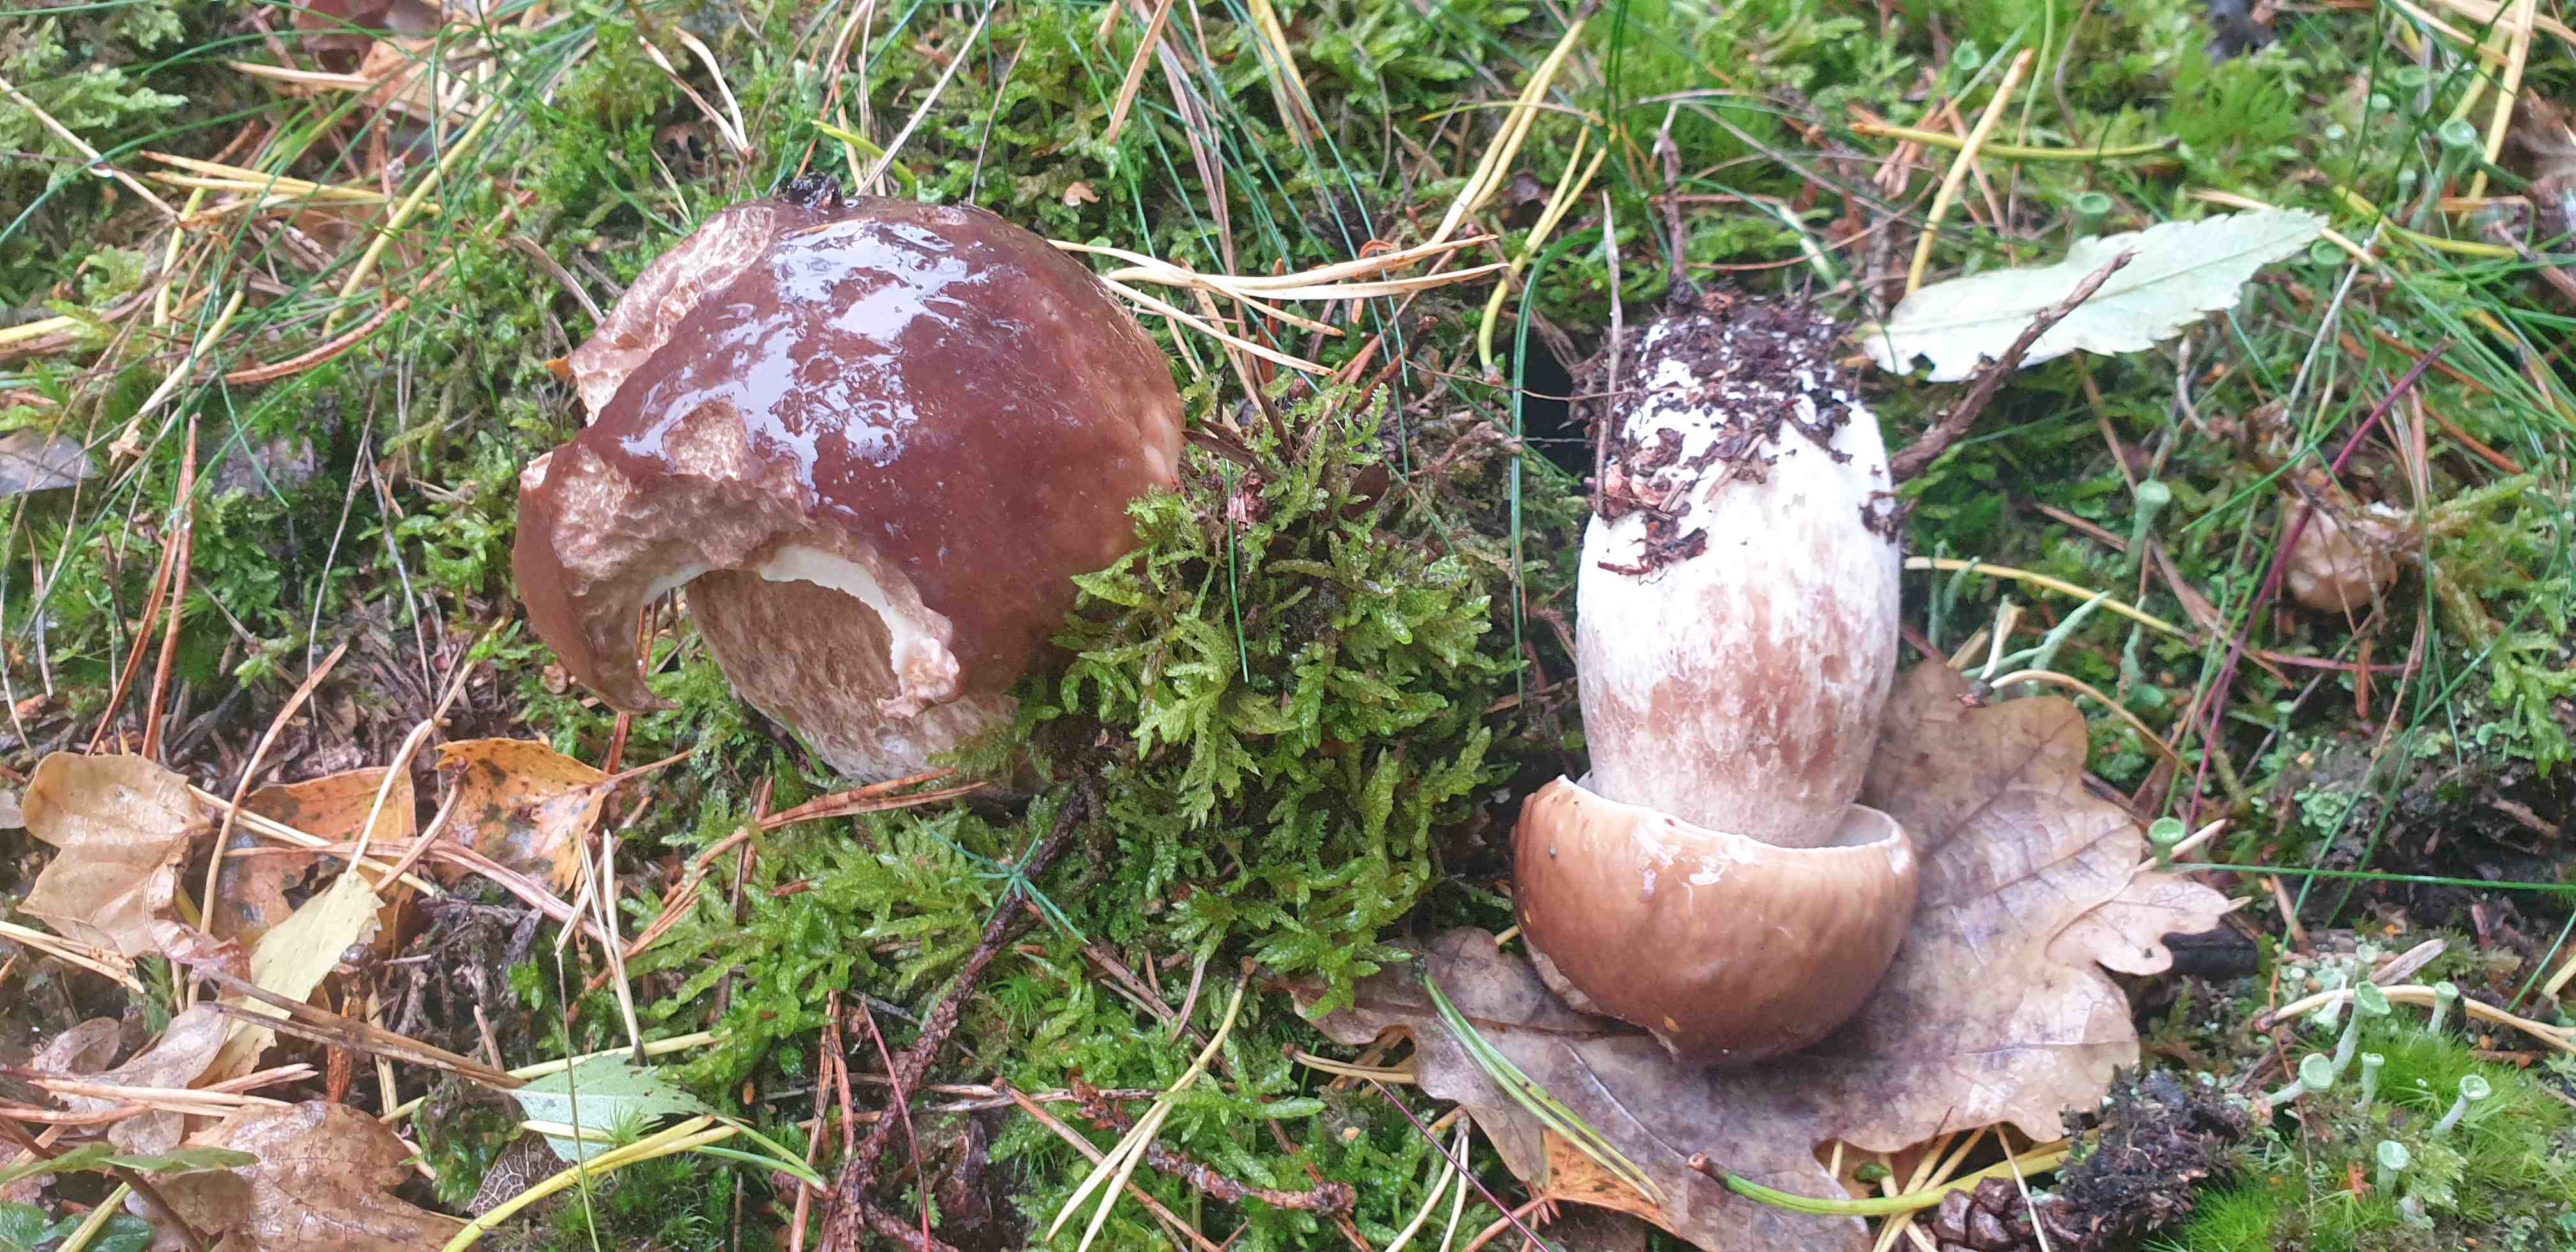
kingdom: Fungi
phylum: Basidiomycota
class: Agaricomycetes
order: Boletales
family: Boletaceae
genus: Boletus
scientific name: Boletus edulis
